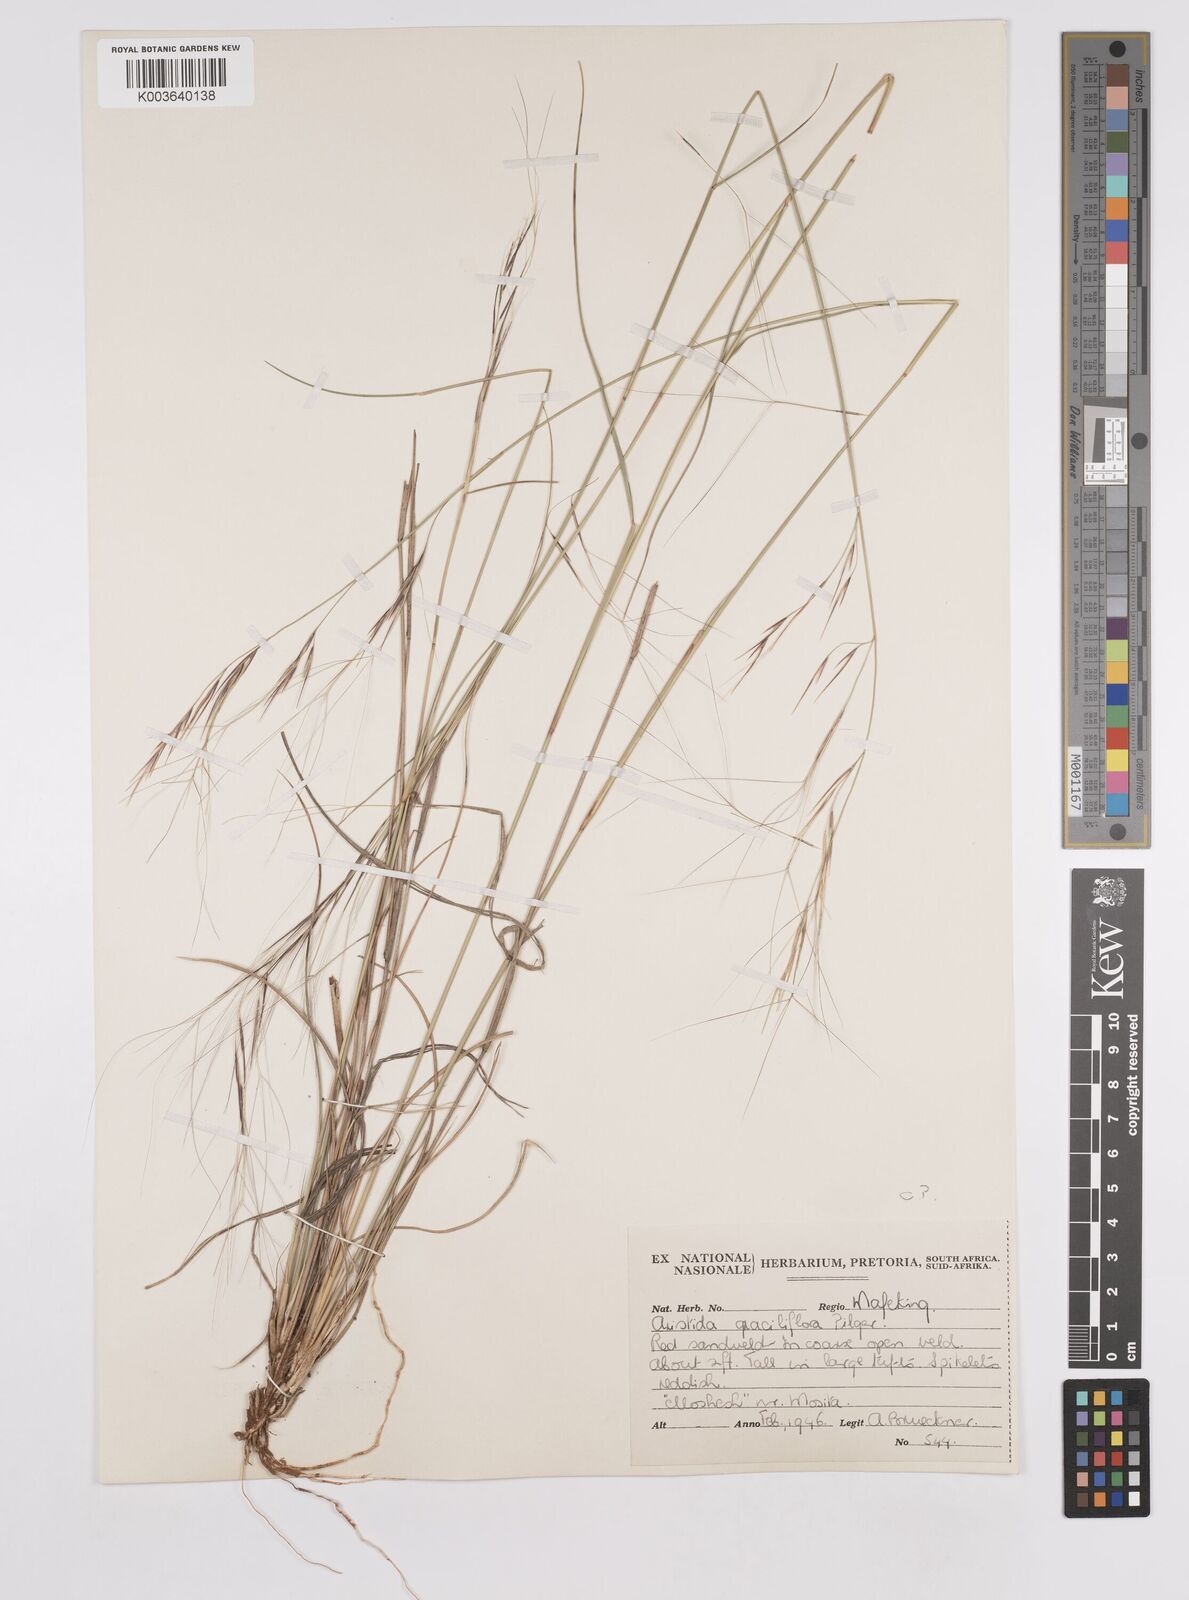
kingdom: Plantae
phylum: Tracheophyta
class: Liliopsida
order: Poales
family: Poaceae
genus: Aristida
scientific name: Aristida stipitata
